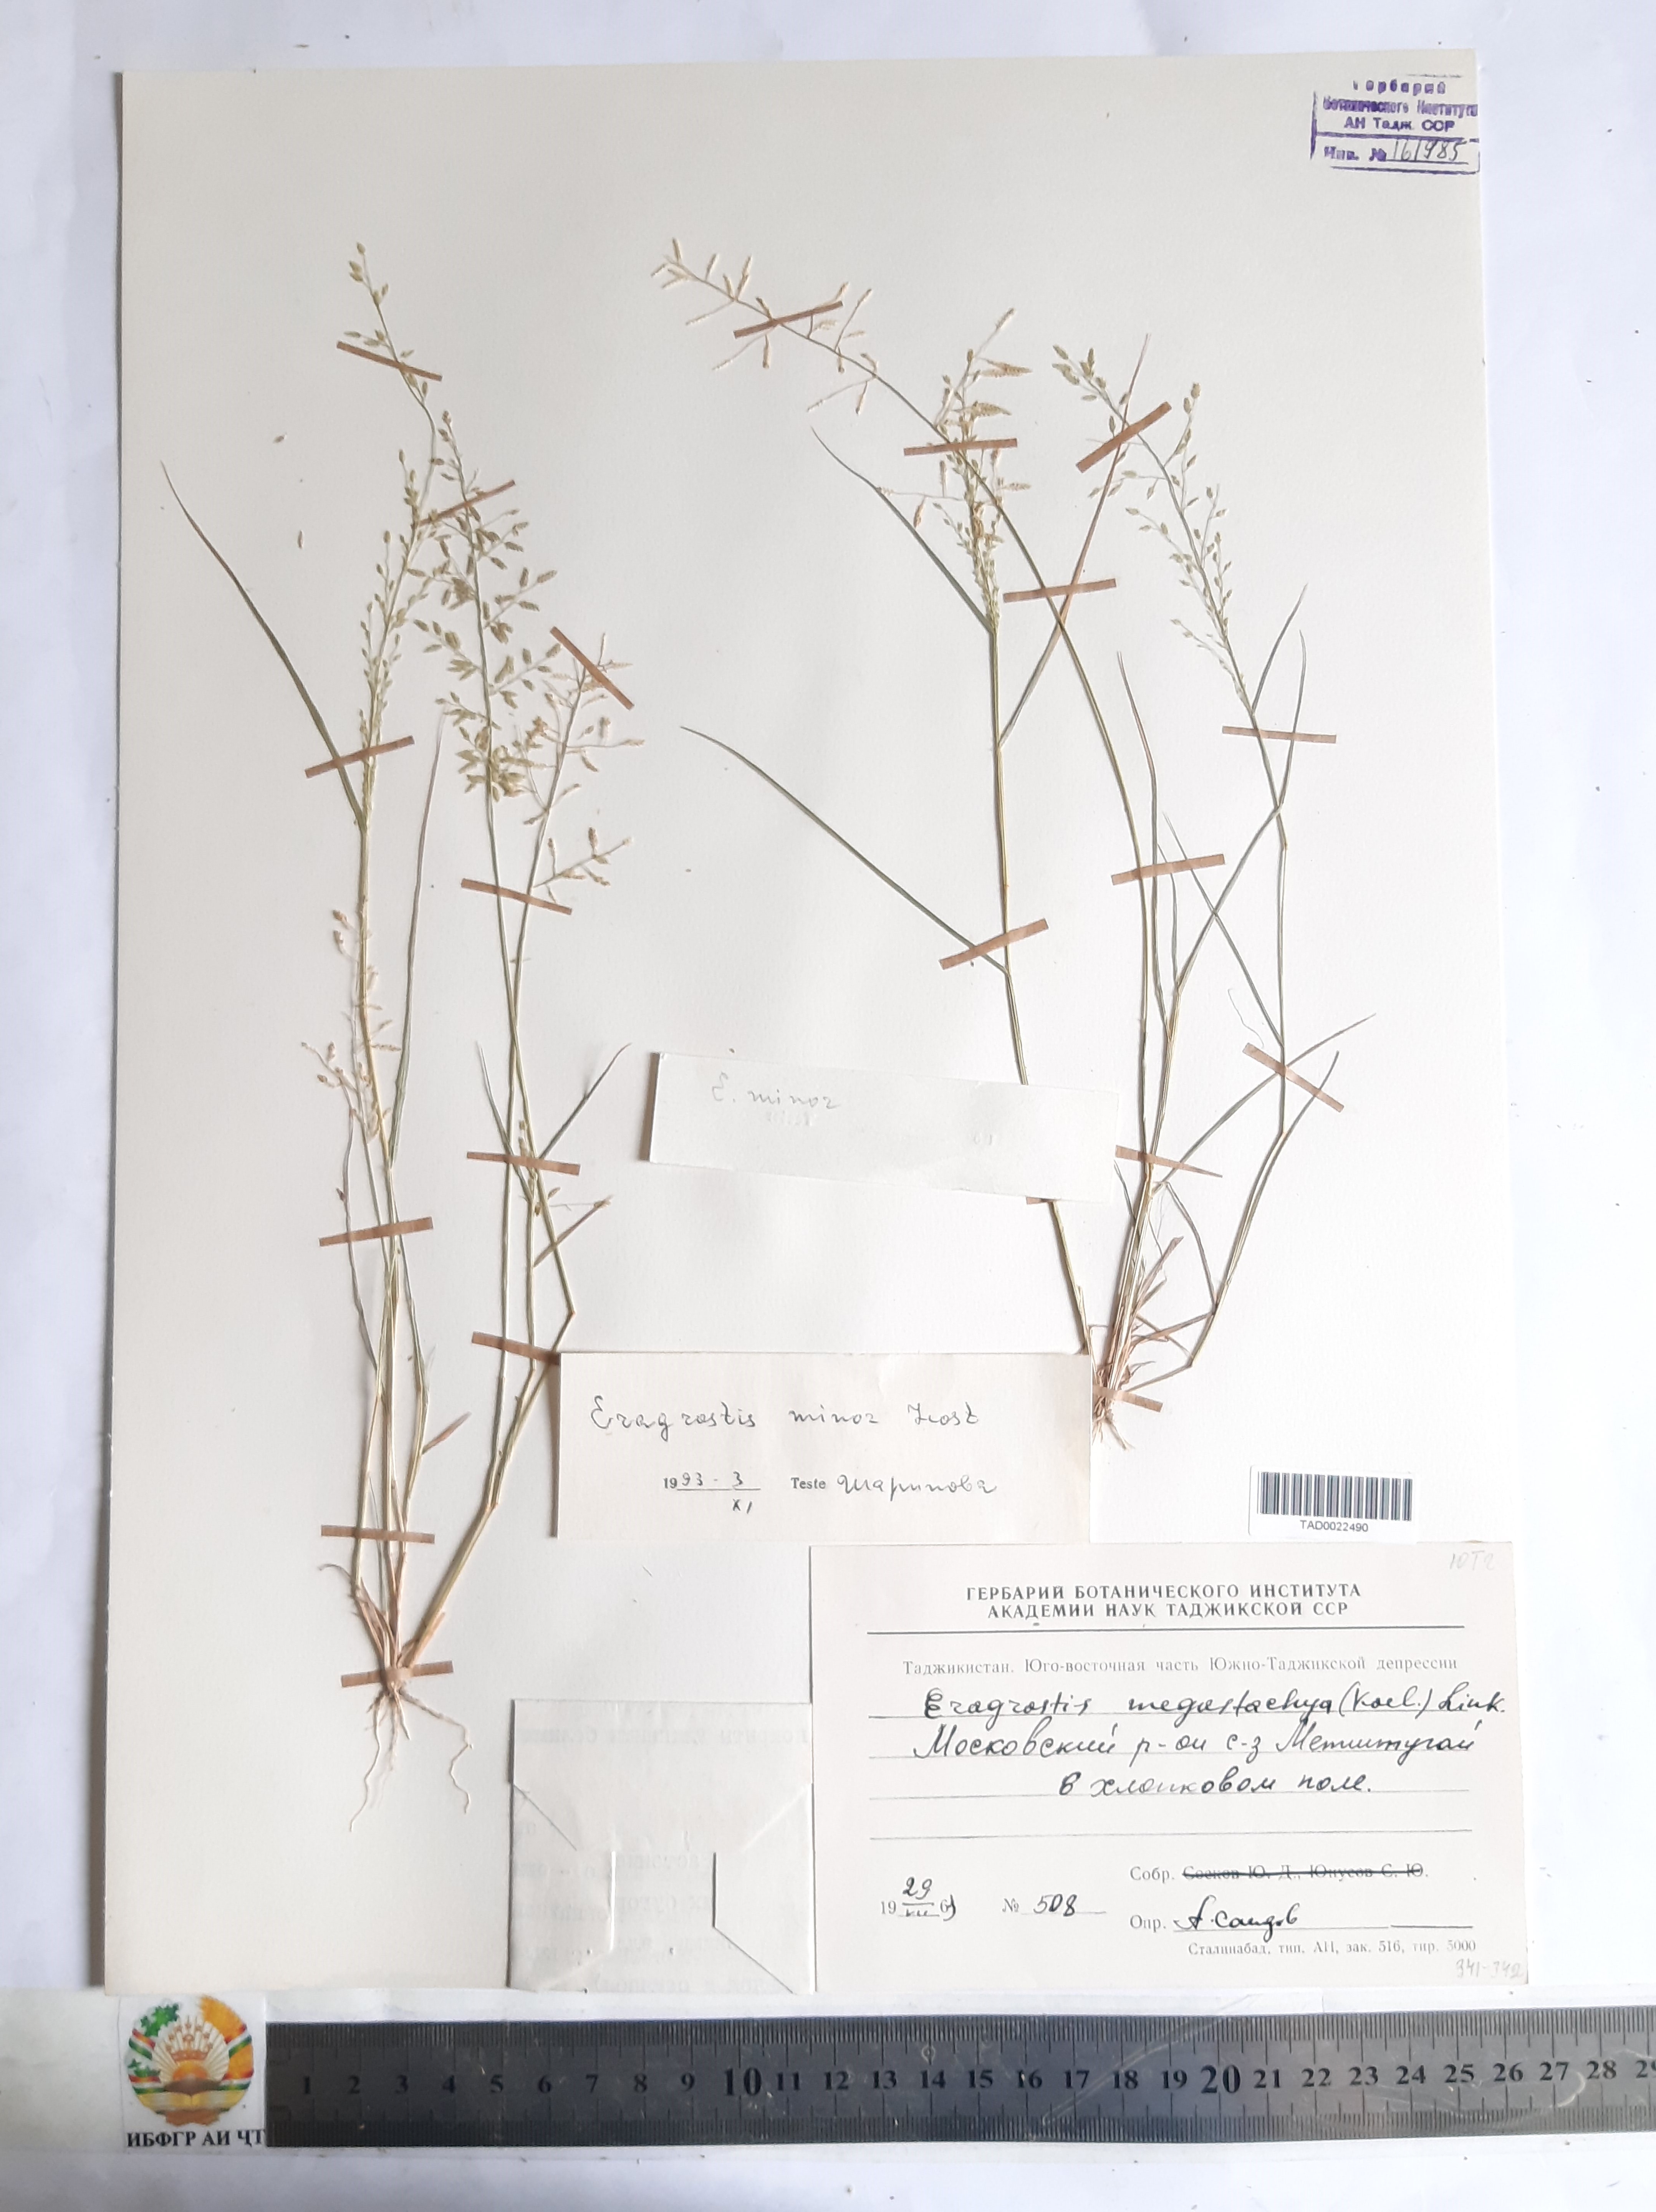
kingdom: Plantae
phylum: Tracheophyta
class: Liliopsida
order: Poales
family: Poaceae
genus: Eragrostis
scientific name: Eragrostis minor
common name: Small love-grass
